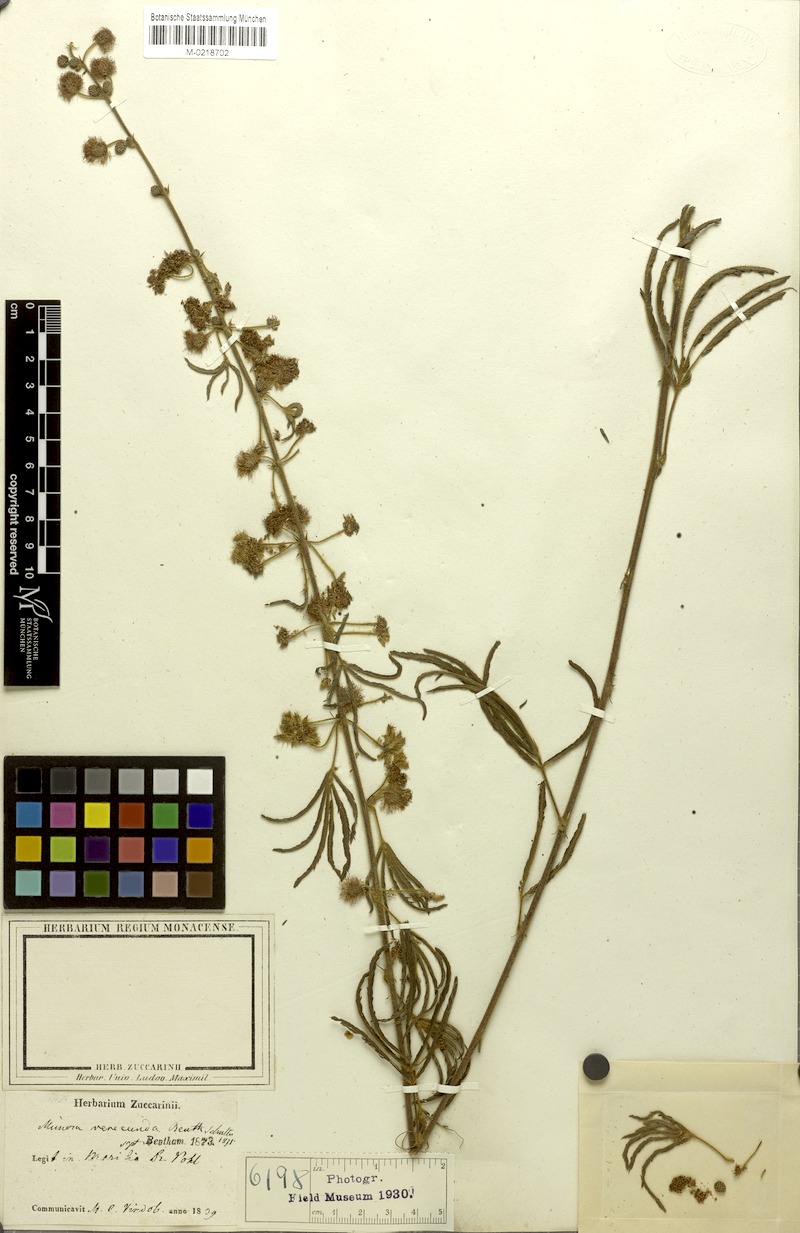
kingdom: Plantae
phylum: Tracheophyta
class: Magnoliopsida
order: Fabales
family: Fabaceae
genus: Mimosa
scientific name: Mimosa verecunda
